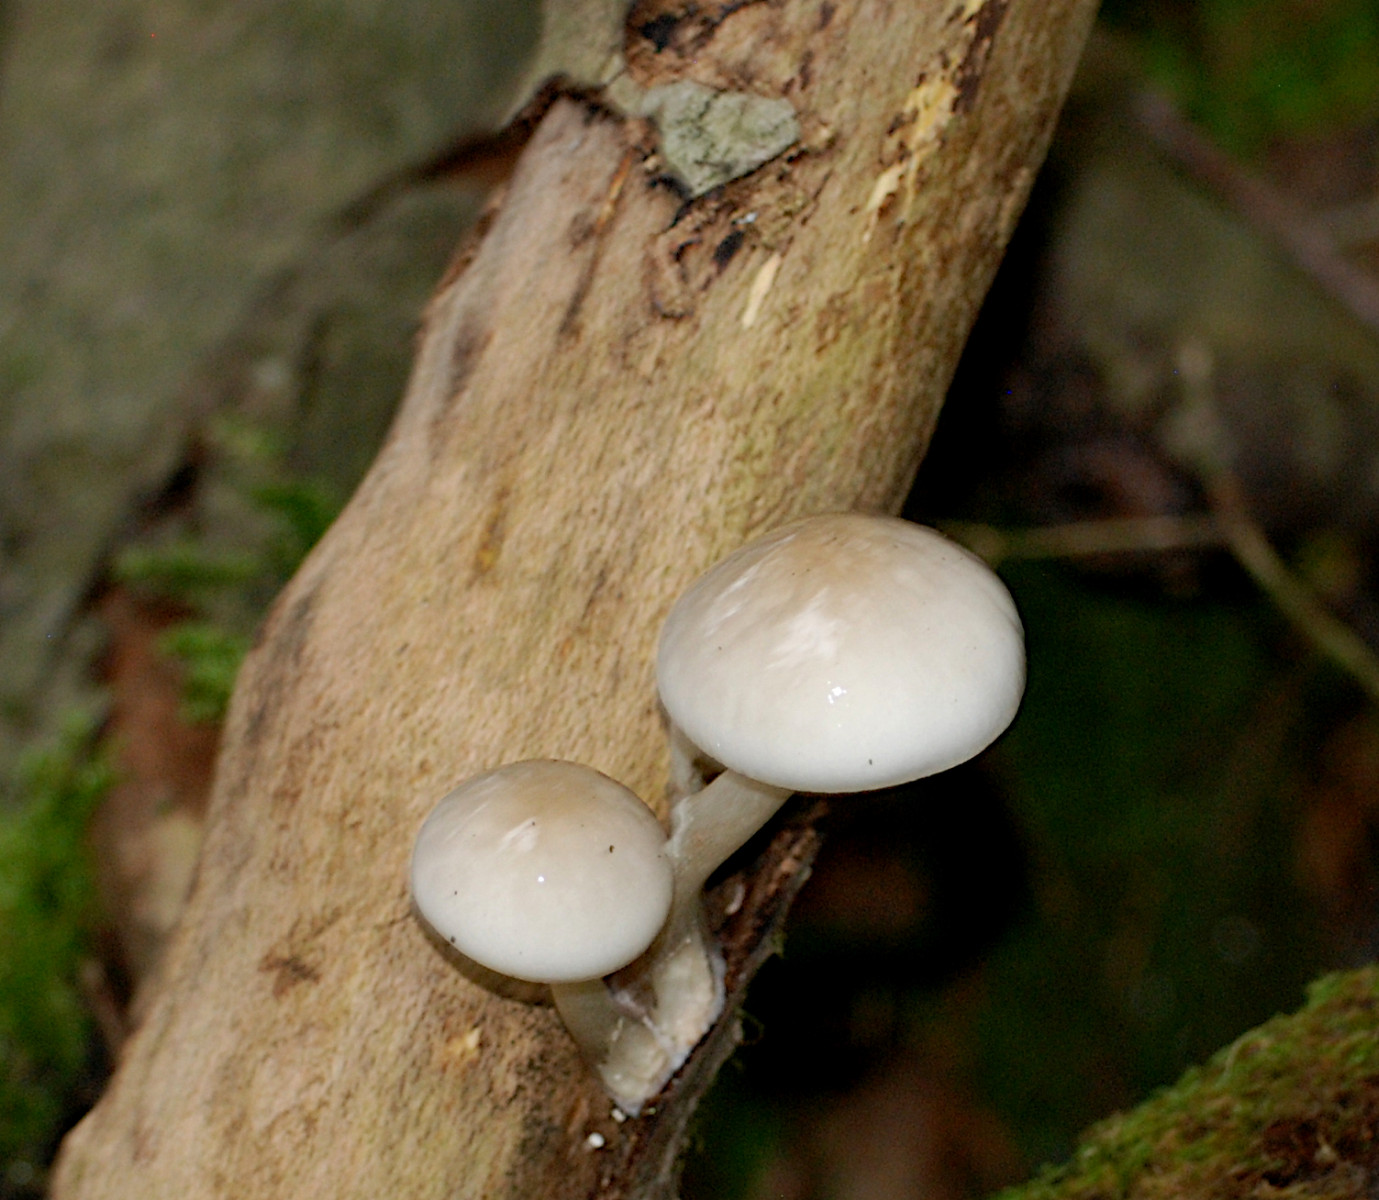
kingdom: Fungi
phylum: Basidiomycota
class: Agaricomycetes
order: Agaricales
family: Physalacriaceae
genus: Mucidula
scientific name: Mucidula mucida
